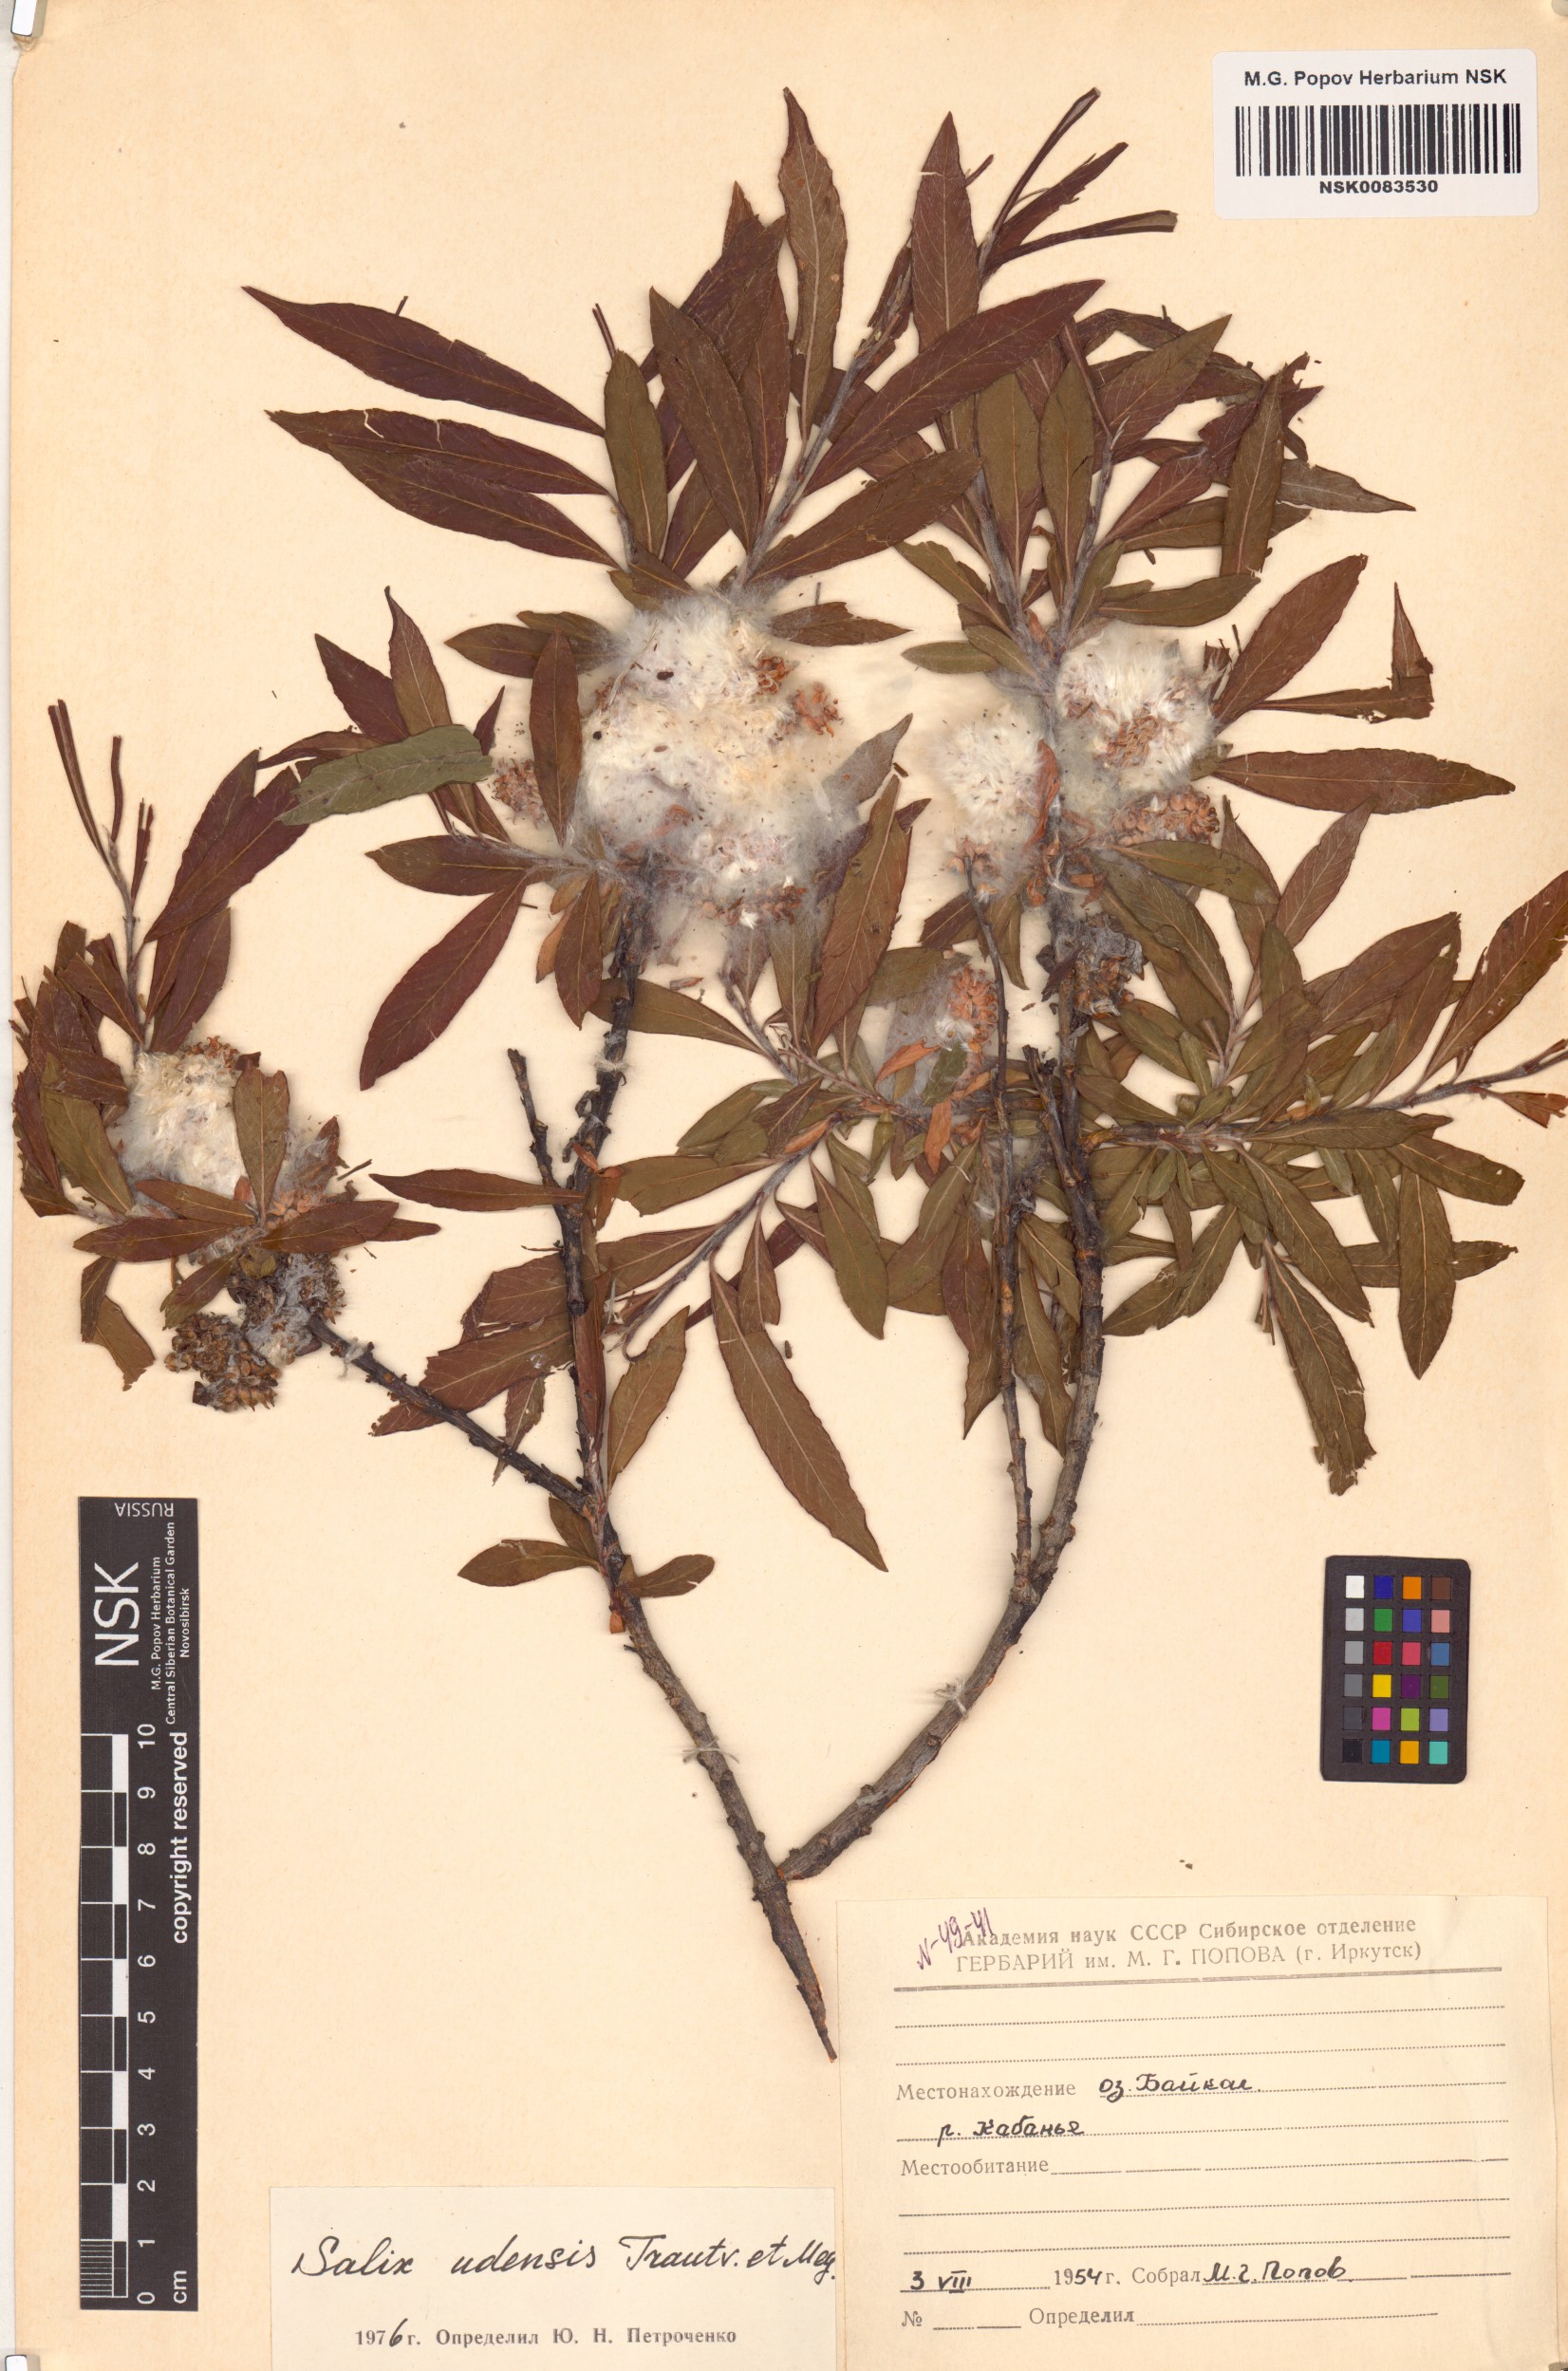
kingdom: Plantae
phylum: Tracheophyta
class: Magnoliopsida
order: Malpighiales
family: Salicaceae
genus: Salix
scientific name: Salix udensis
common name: Sachalin willow
